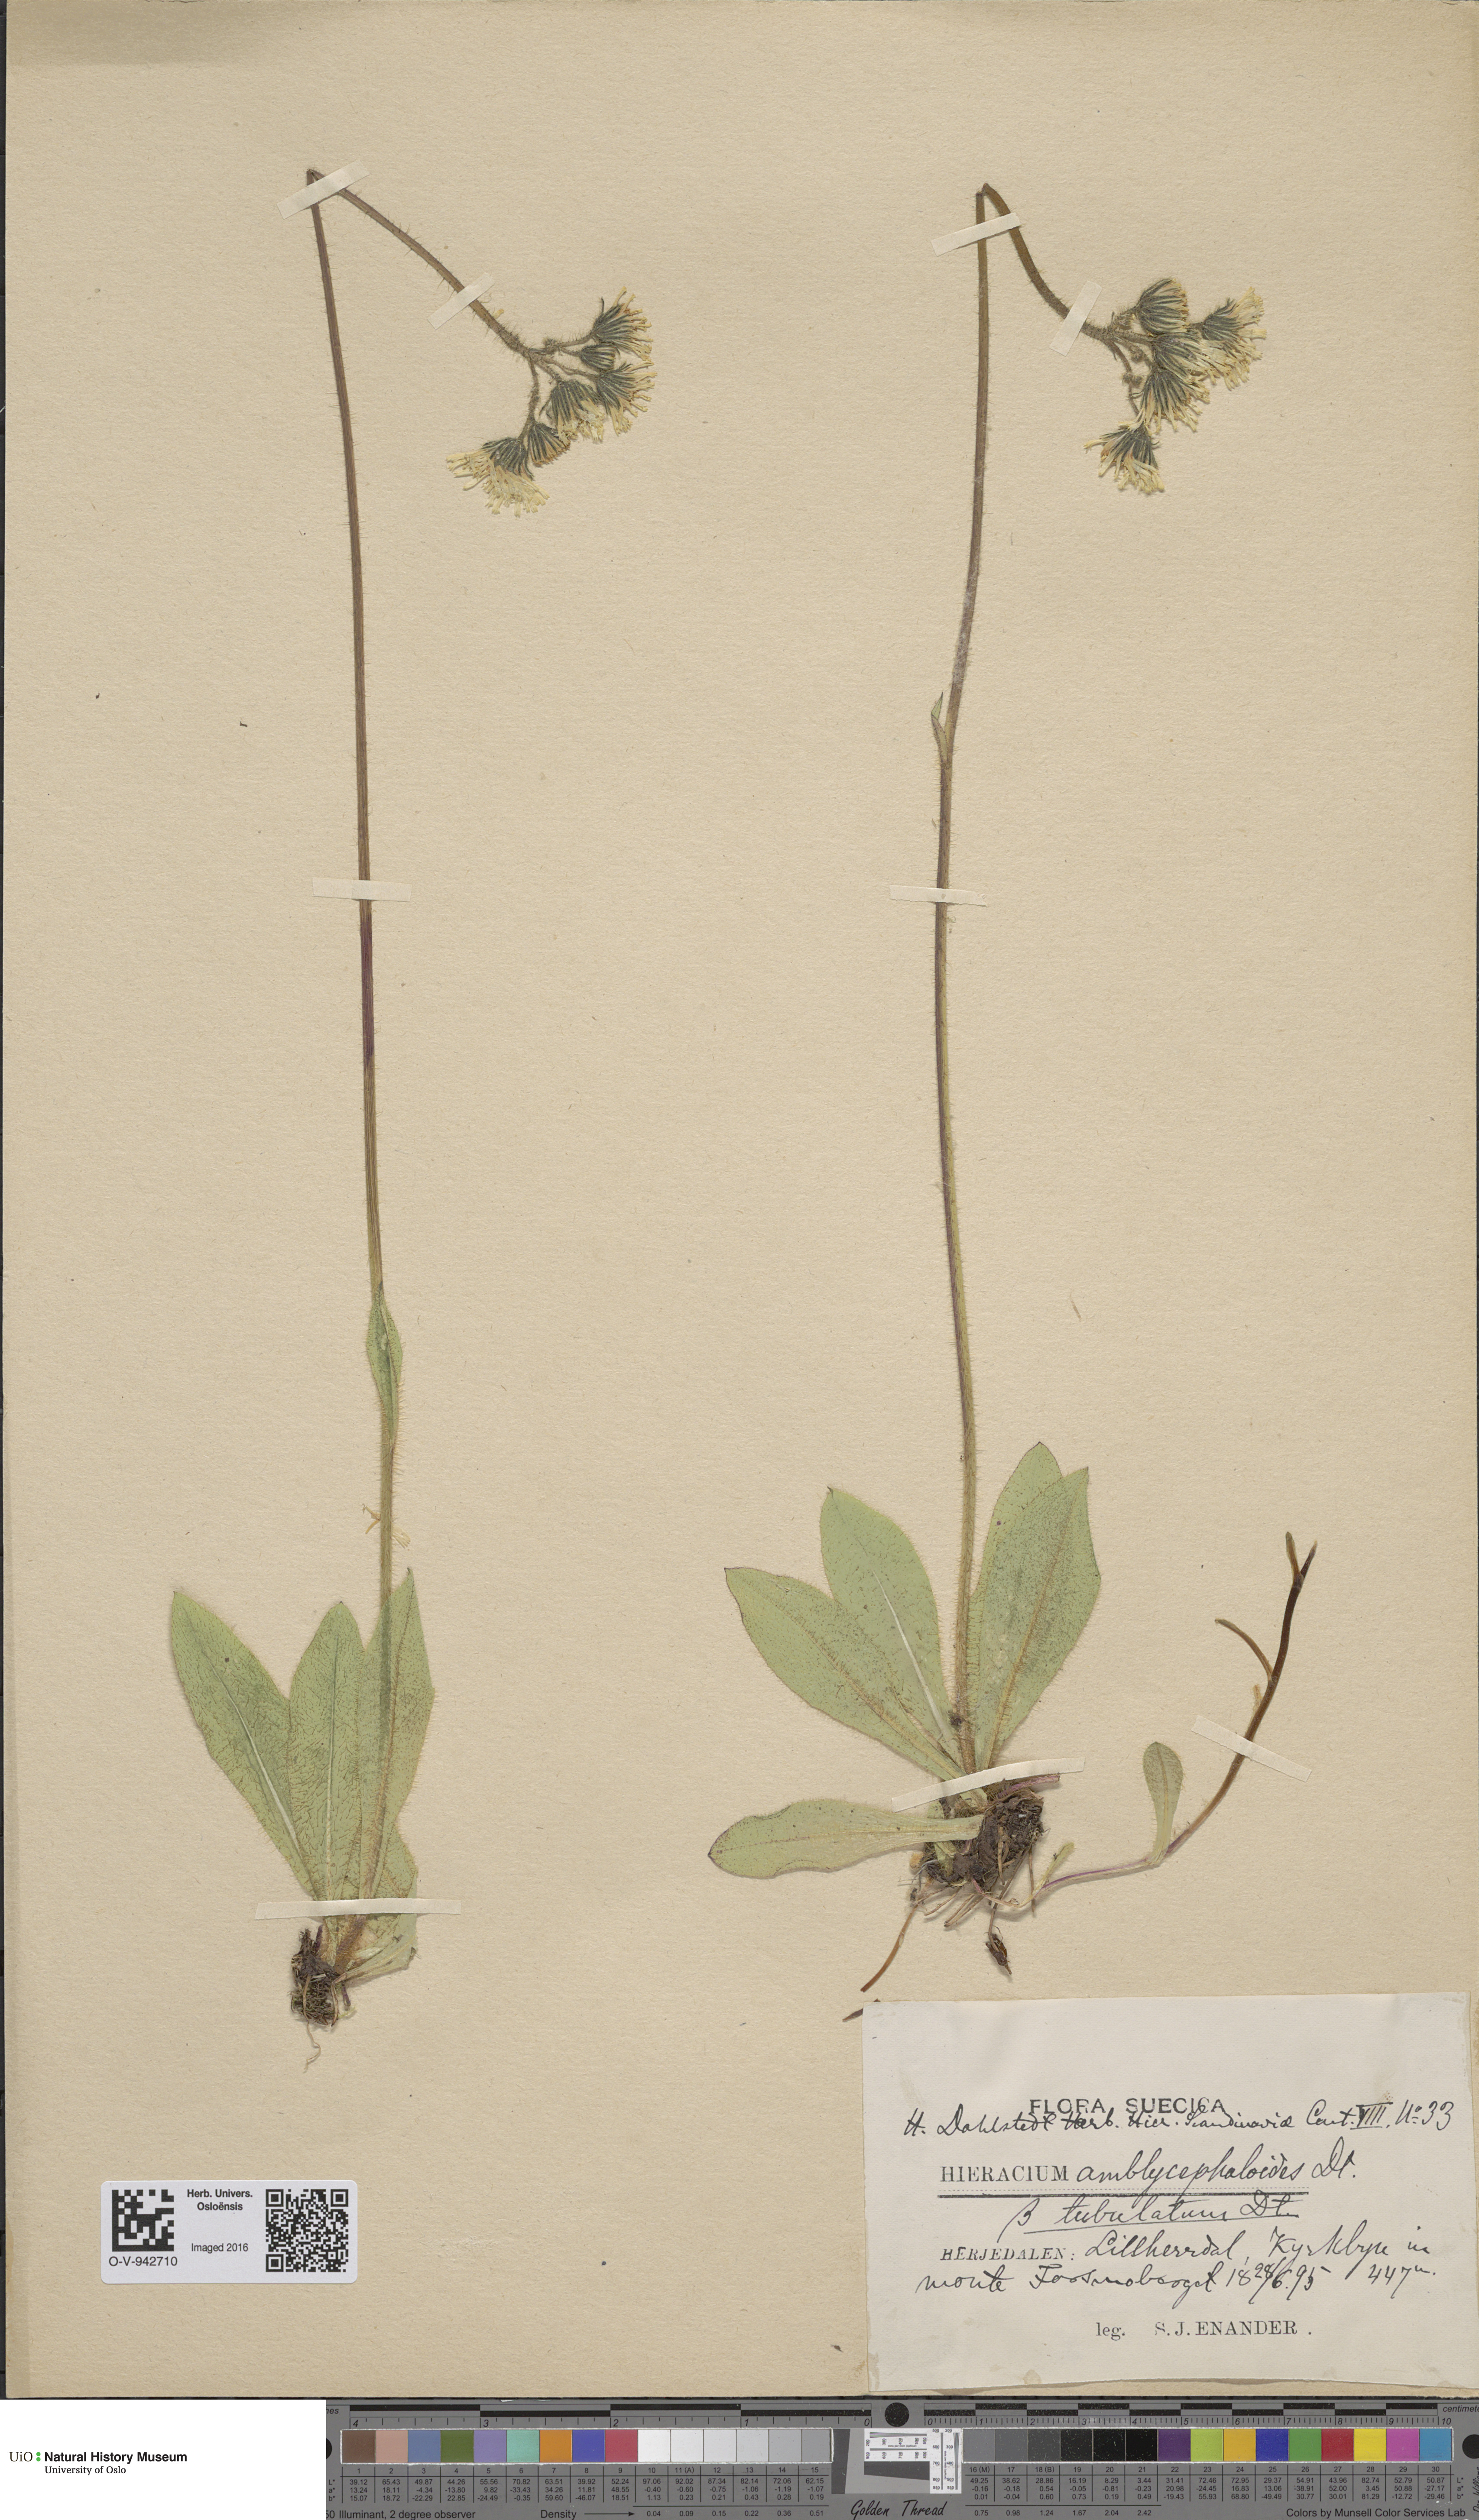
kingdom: Plantae
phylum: Tracheophyta
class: Magnoliopsida
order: Asterales
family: Asteraceae
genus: Hieracium
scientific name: Hieracium
